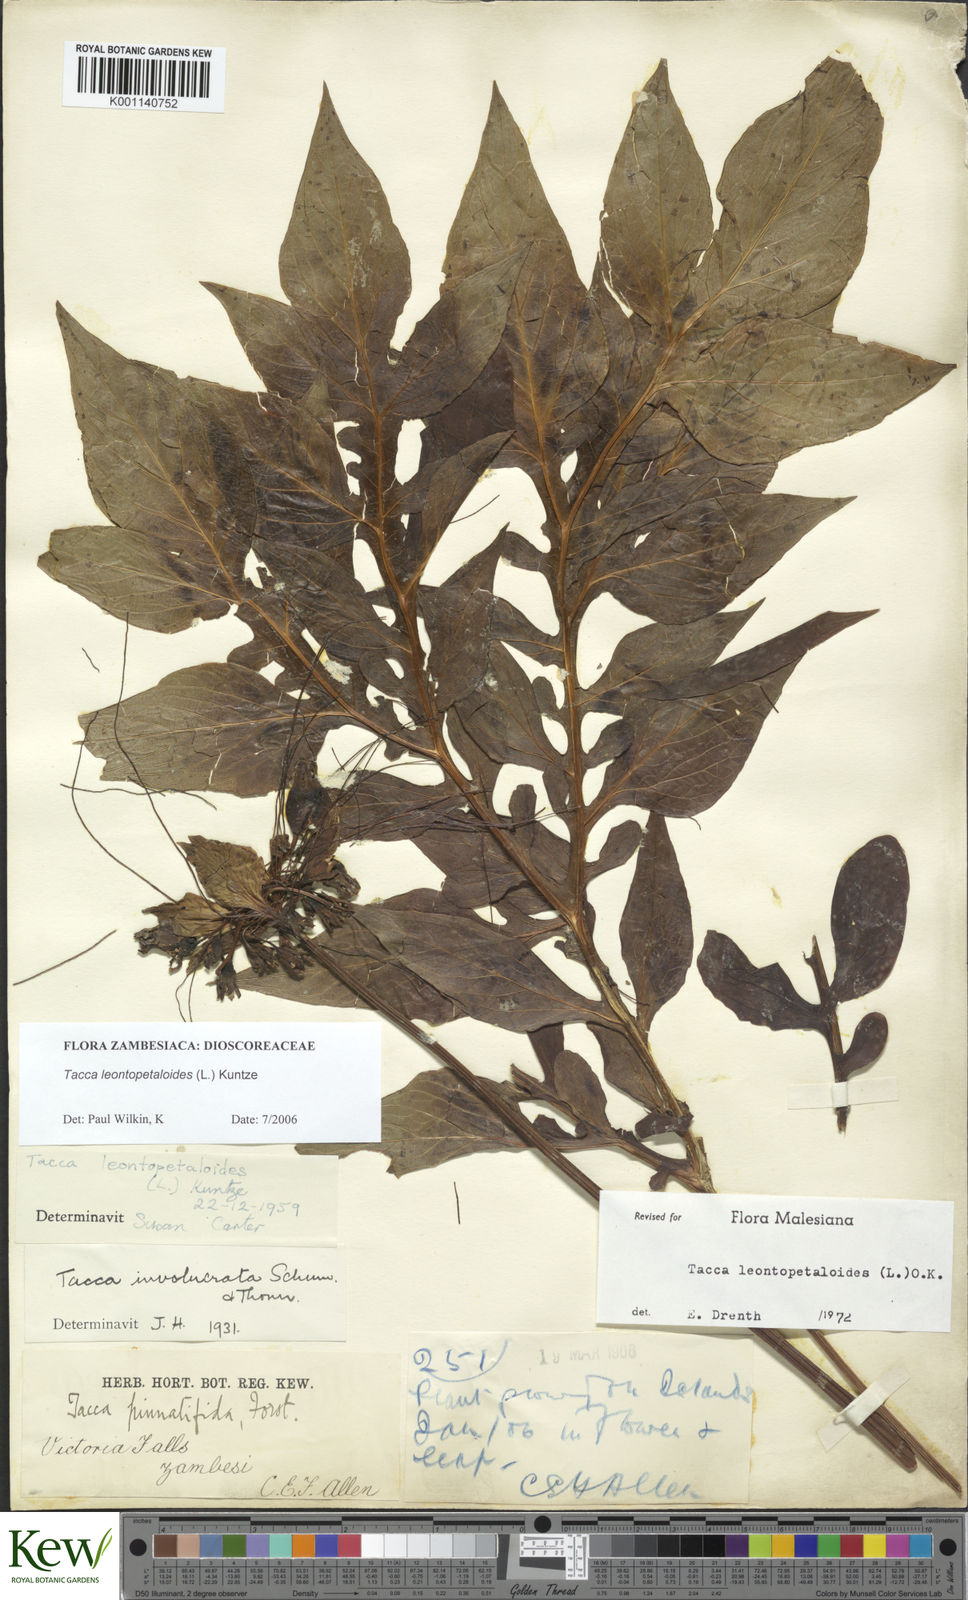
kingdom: Plantae
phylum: Tracheophyta
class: Liliopsida
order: Dioscoreales
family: Dioscoreaceae
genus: Tacca
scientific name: Tacca leontopetaloides
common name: Arrowroot
